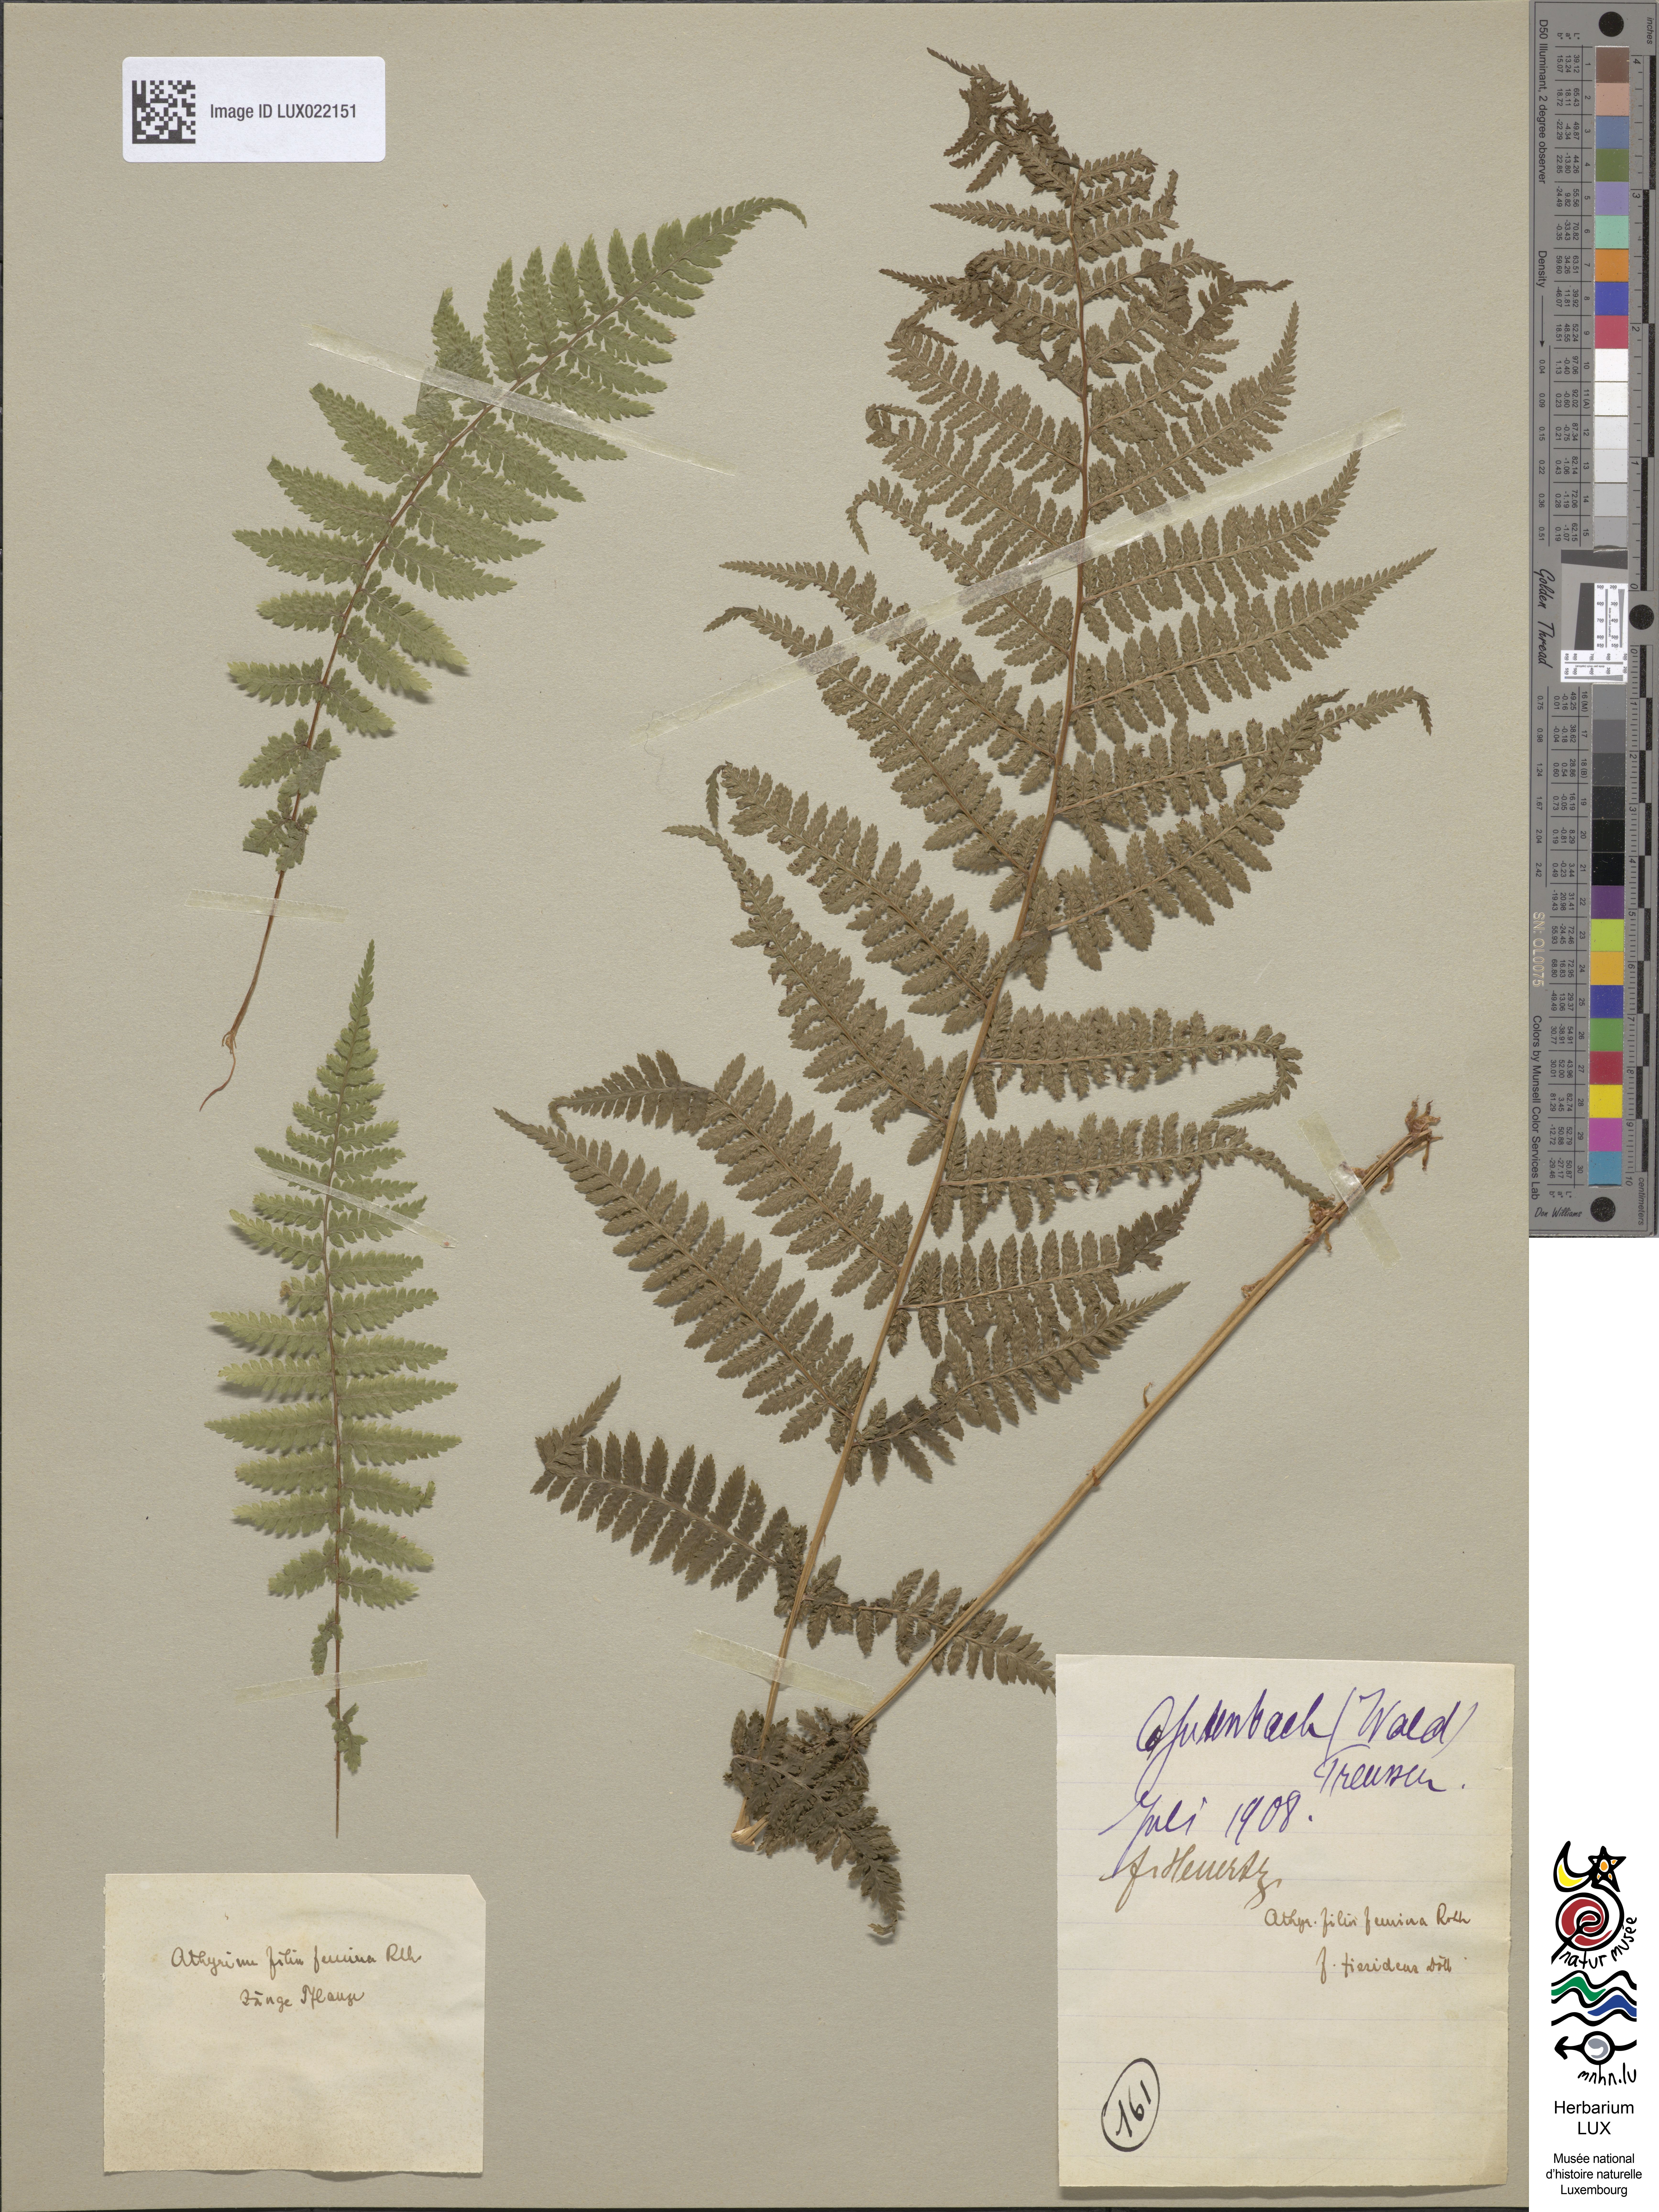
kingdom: Plantae
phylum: Tracheophyta
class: Polypodiopsida
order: Polypodiales
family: Athyriaceae
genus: Athyrium
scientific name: Athyrium filix-femina
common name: Lady fern
